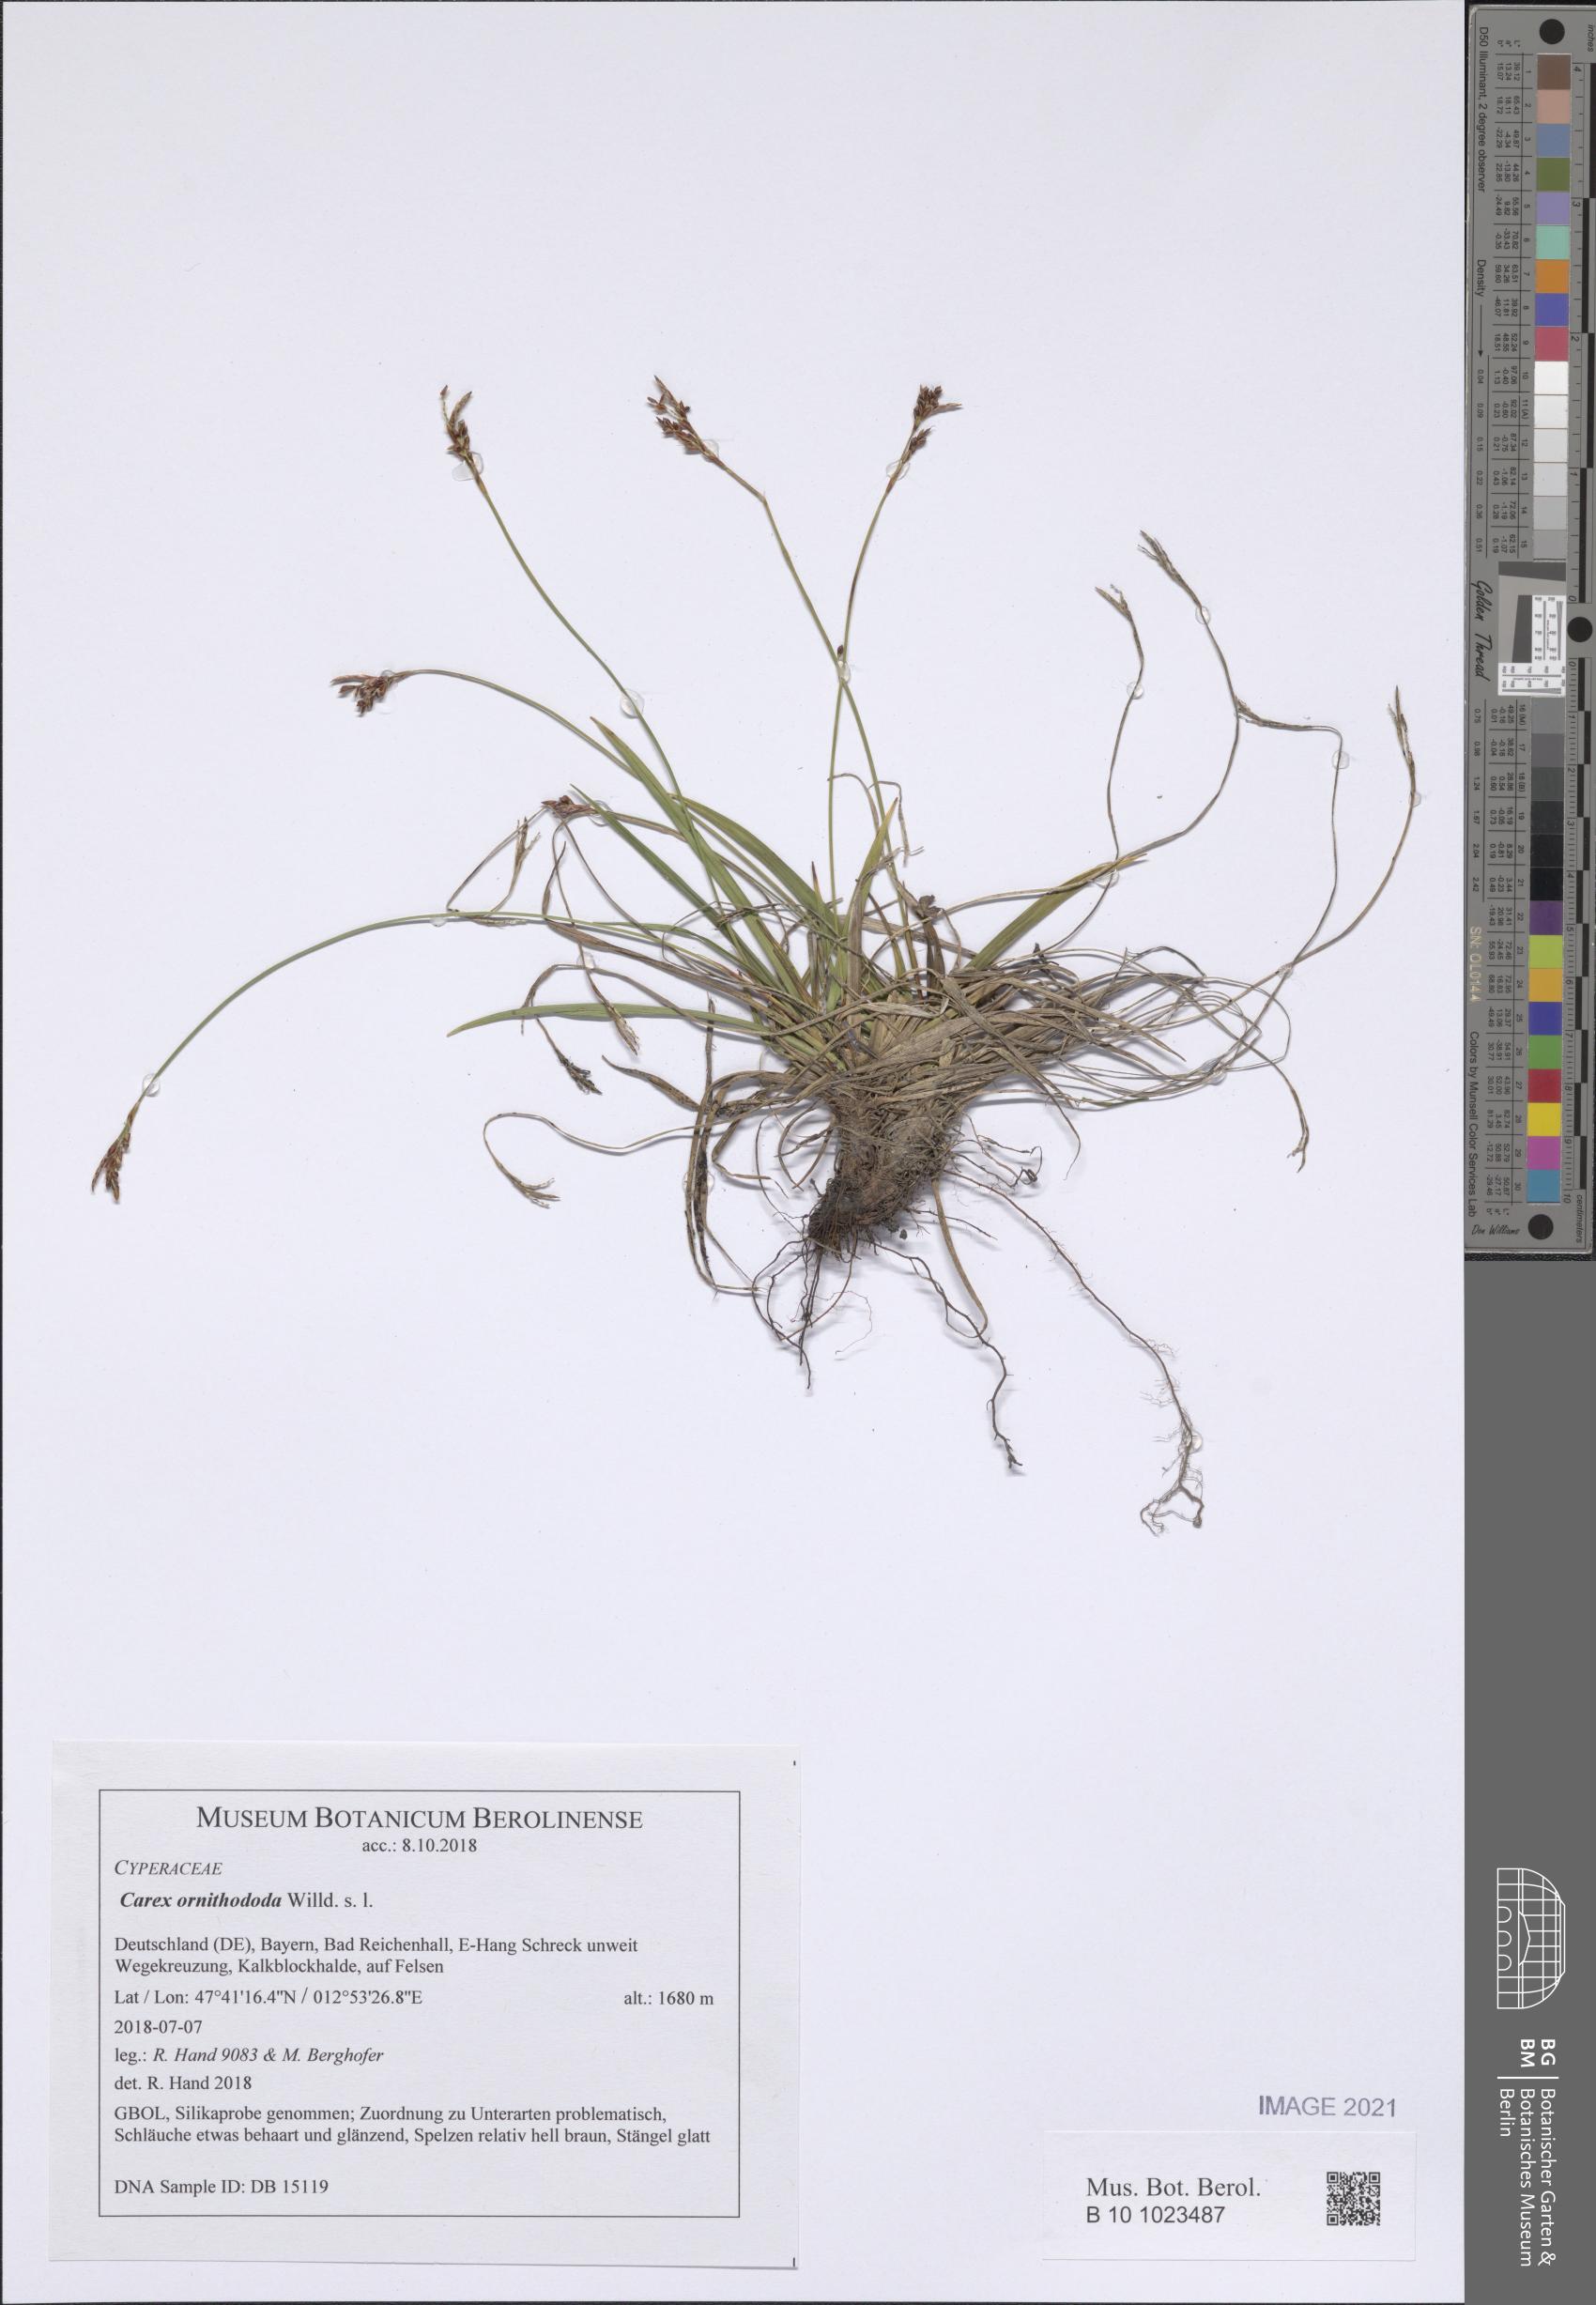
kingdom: Plantae
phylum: Tracheophyta
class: Liliopsida
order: Poales
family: Cyperaceae
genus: Carex
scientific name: Carex ornithopoda
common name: Bird's-foot sedge
